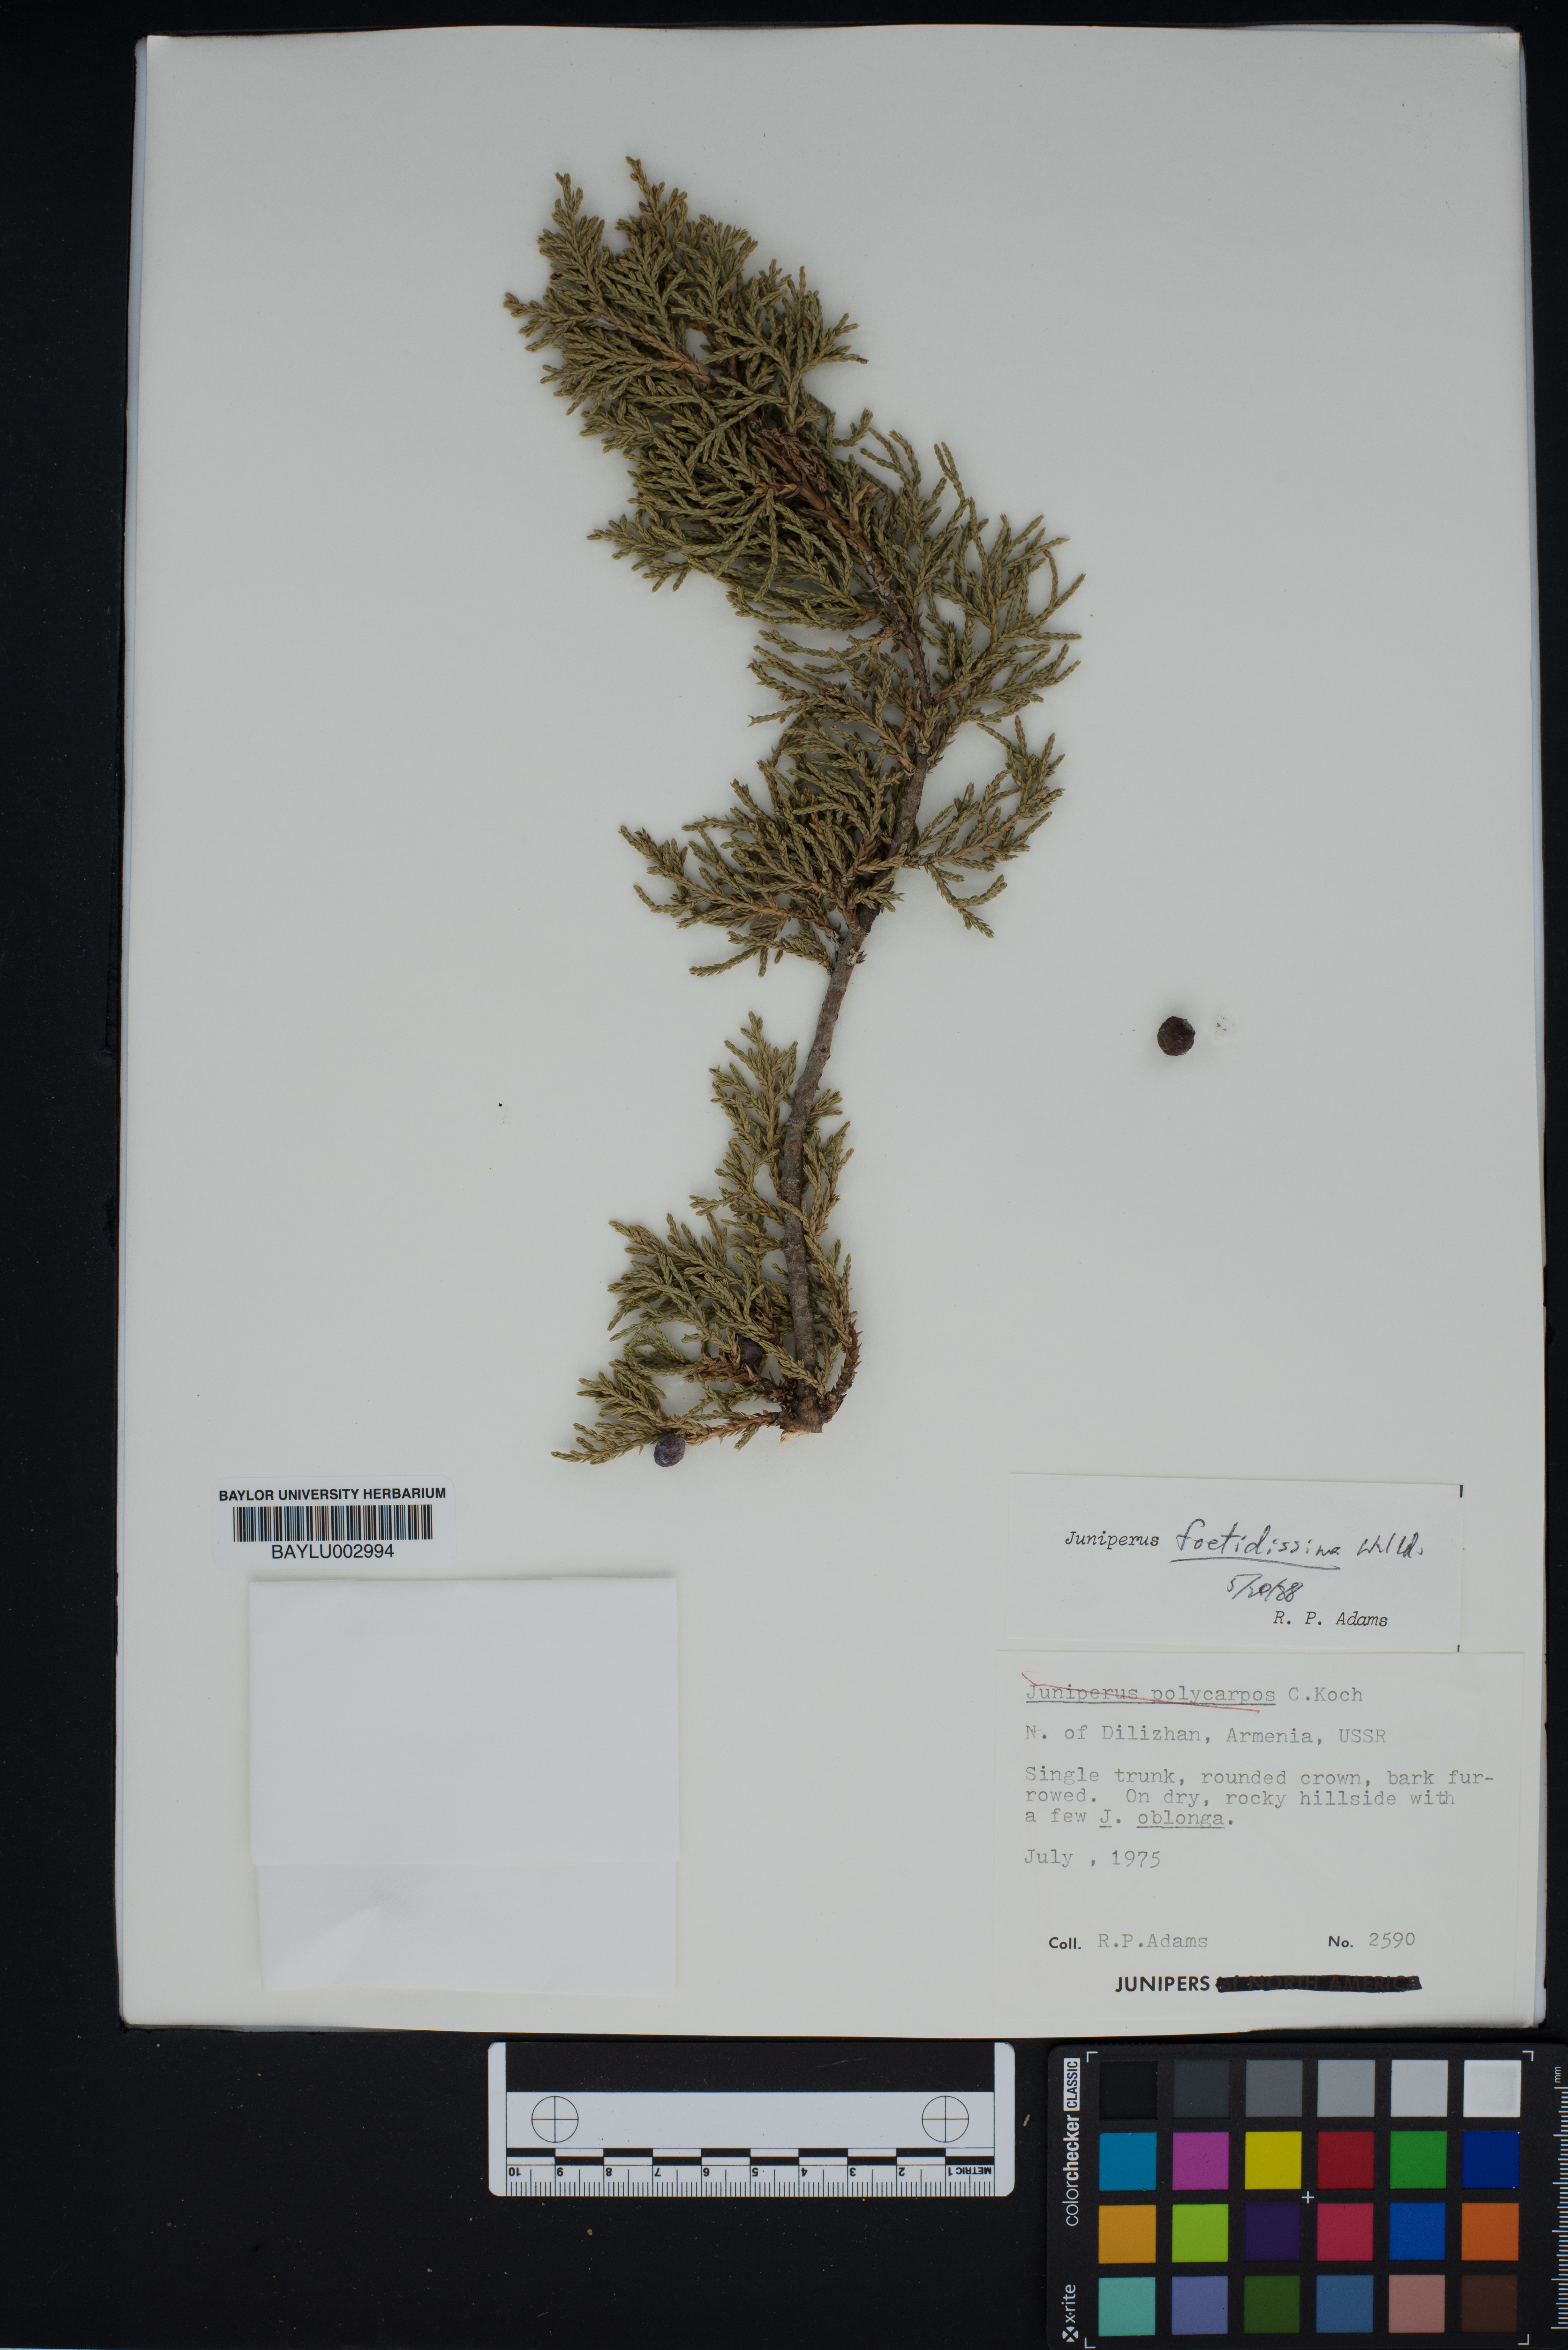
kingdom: Plantae
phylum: Tracheophyta
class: Pinopsida
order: Pinales
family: Cupressaceae
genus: Juniperus
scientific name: Juniperus foetidissima
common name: Stinking juniper
